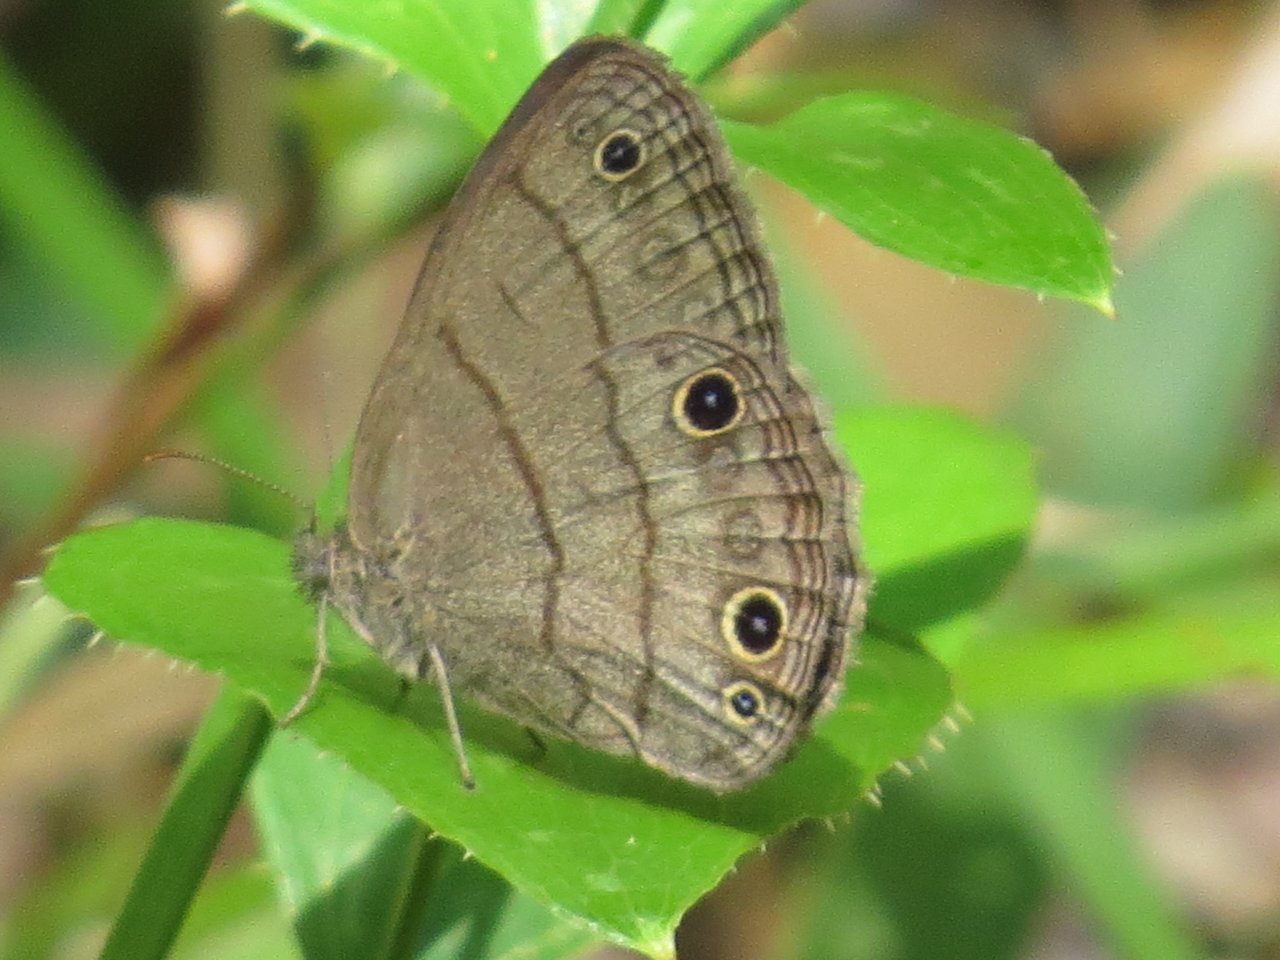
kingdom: Animalia
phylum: Arthropoda
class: Insecta
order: Lepidoptera
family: Nymphalidae
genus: Hermeuptychia
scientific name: Hermeuptychia hermes
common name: Carolina Satyr
